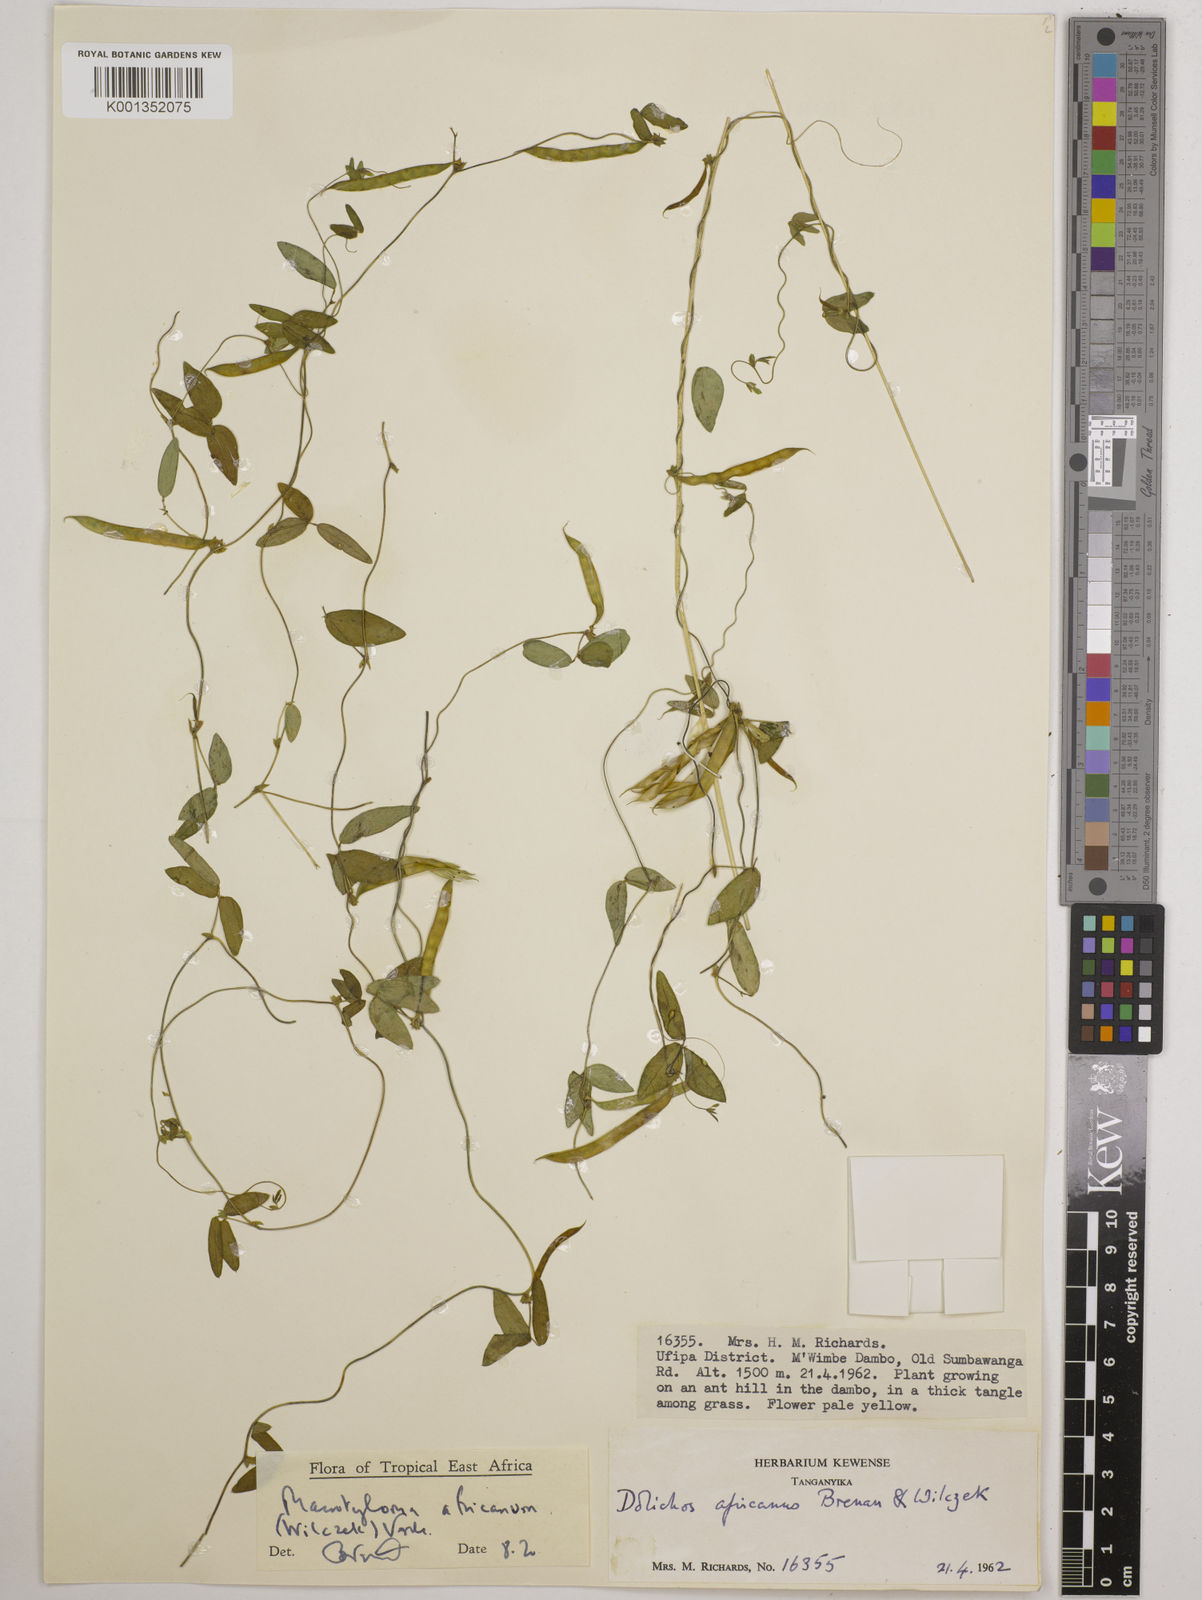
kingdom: Plantae
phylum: Tracheophyta
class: Magnoliopsida
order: Fabales
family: Fabaceae
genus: Macrotyloma
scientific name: Macrotyloma africanum
